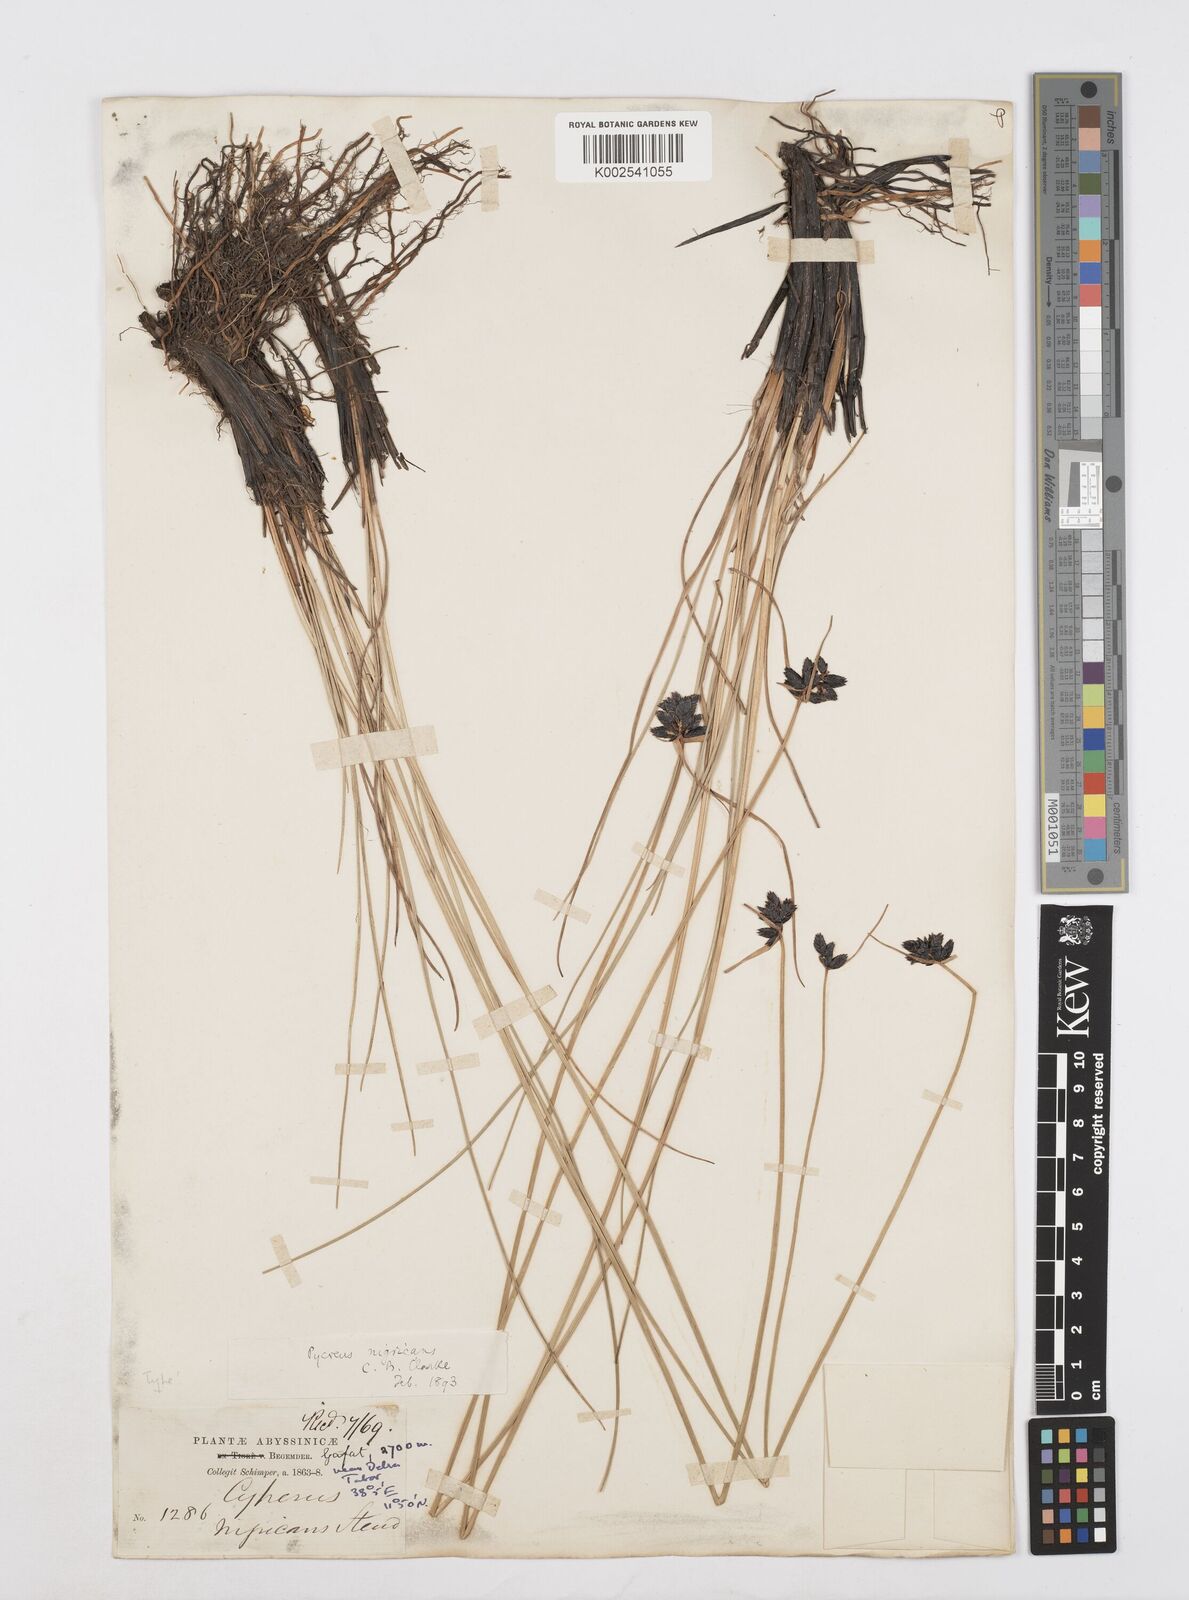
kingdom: Plantae
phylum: Tracheophyta
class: Liliopsida
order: Poales
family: Cyperaceae
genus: Cyperus
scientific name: Cyperus nigricans
